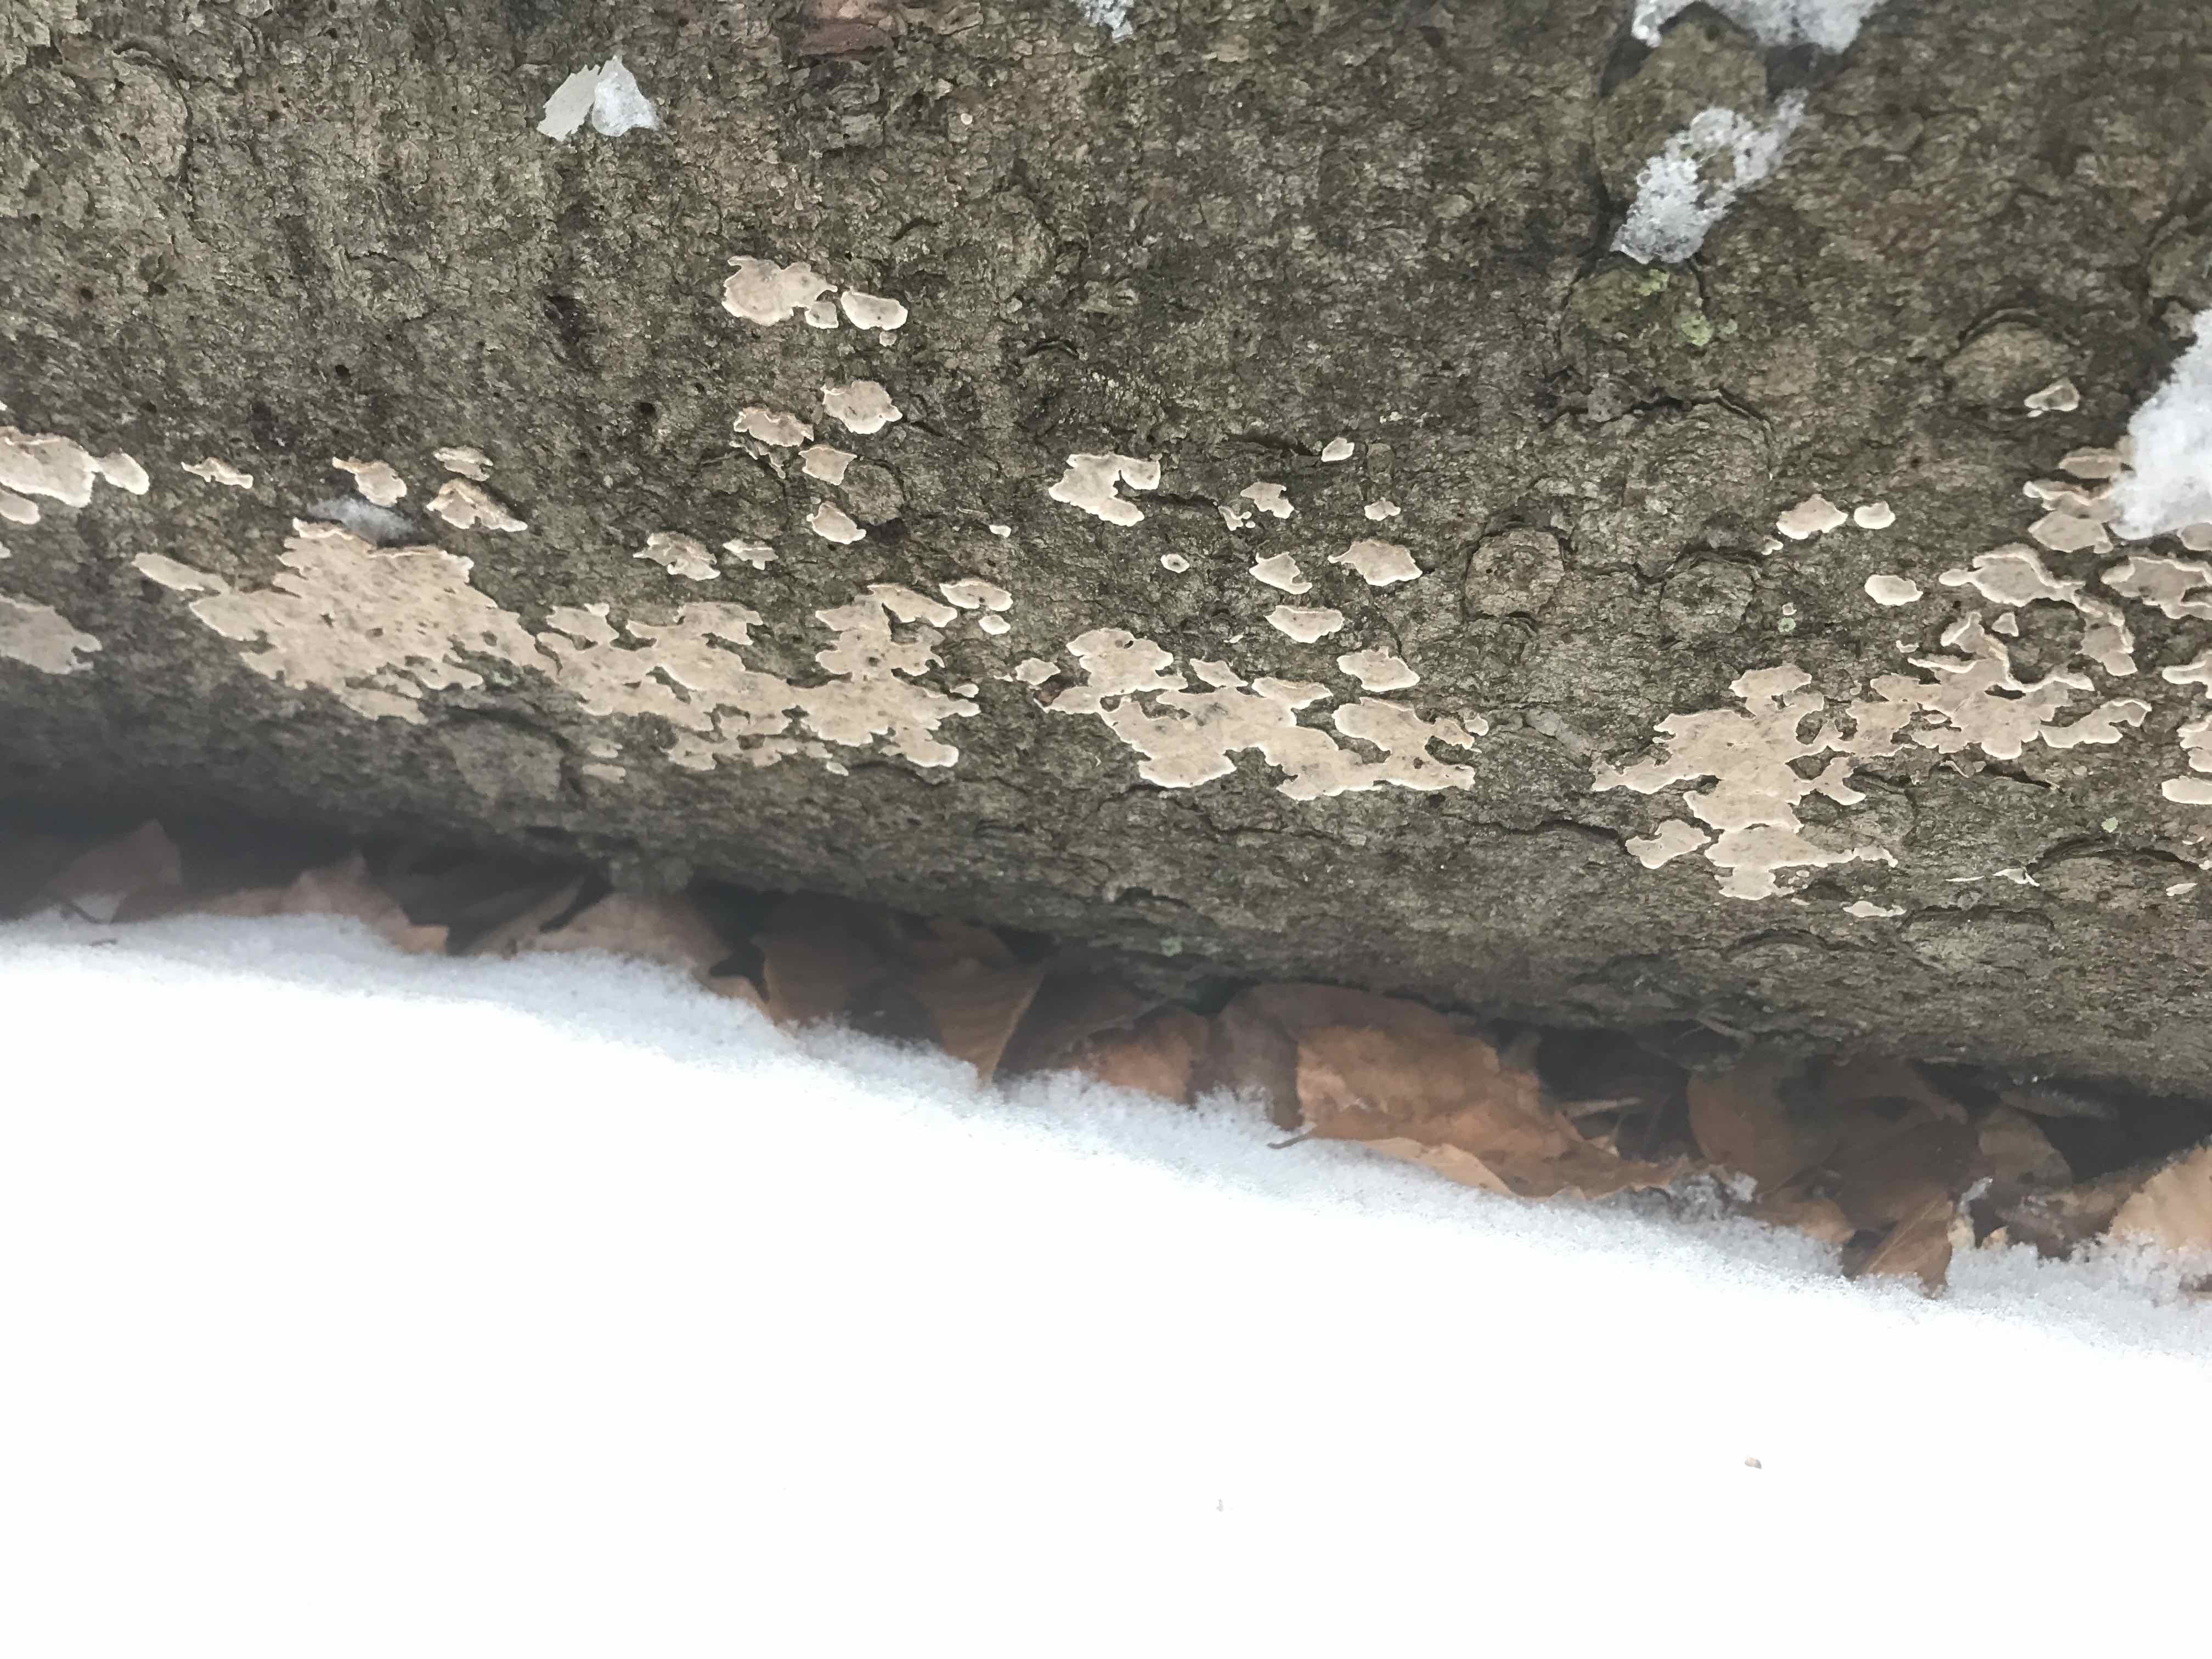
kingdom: Fungi
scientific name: Fungi
